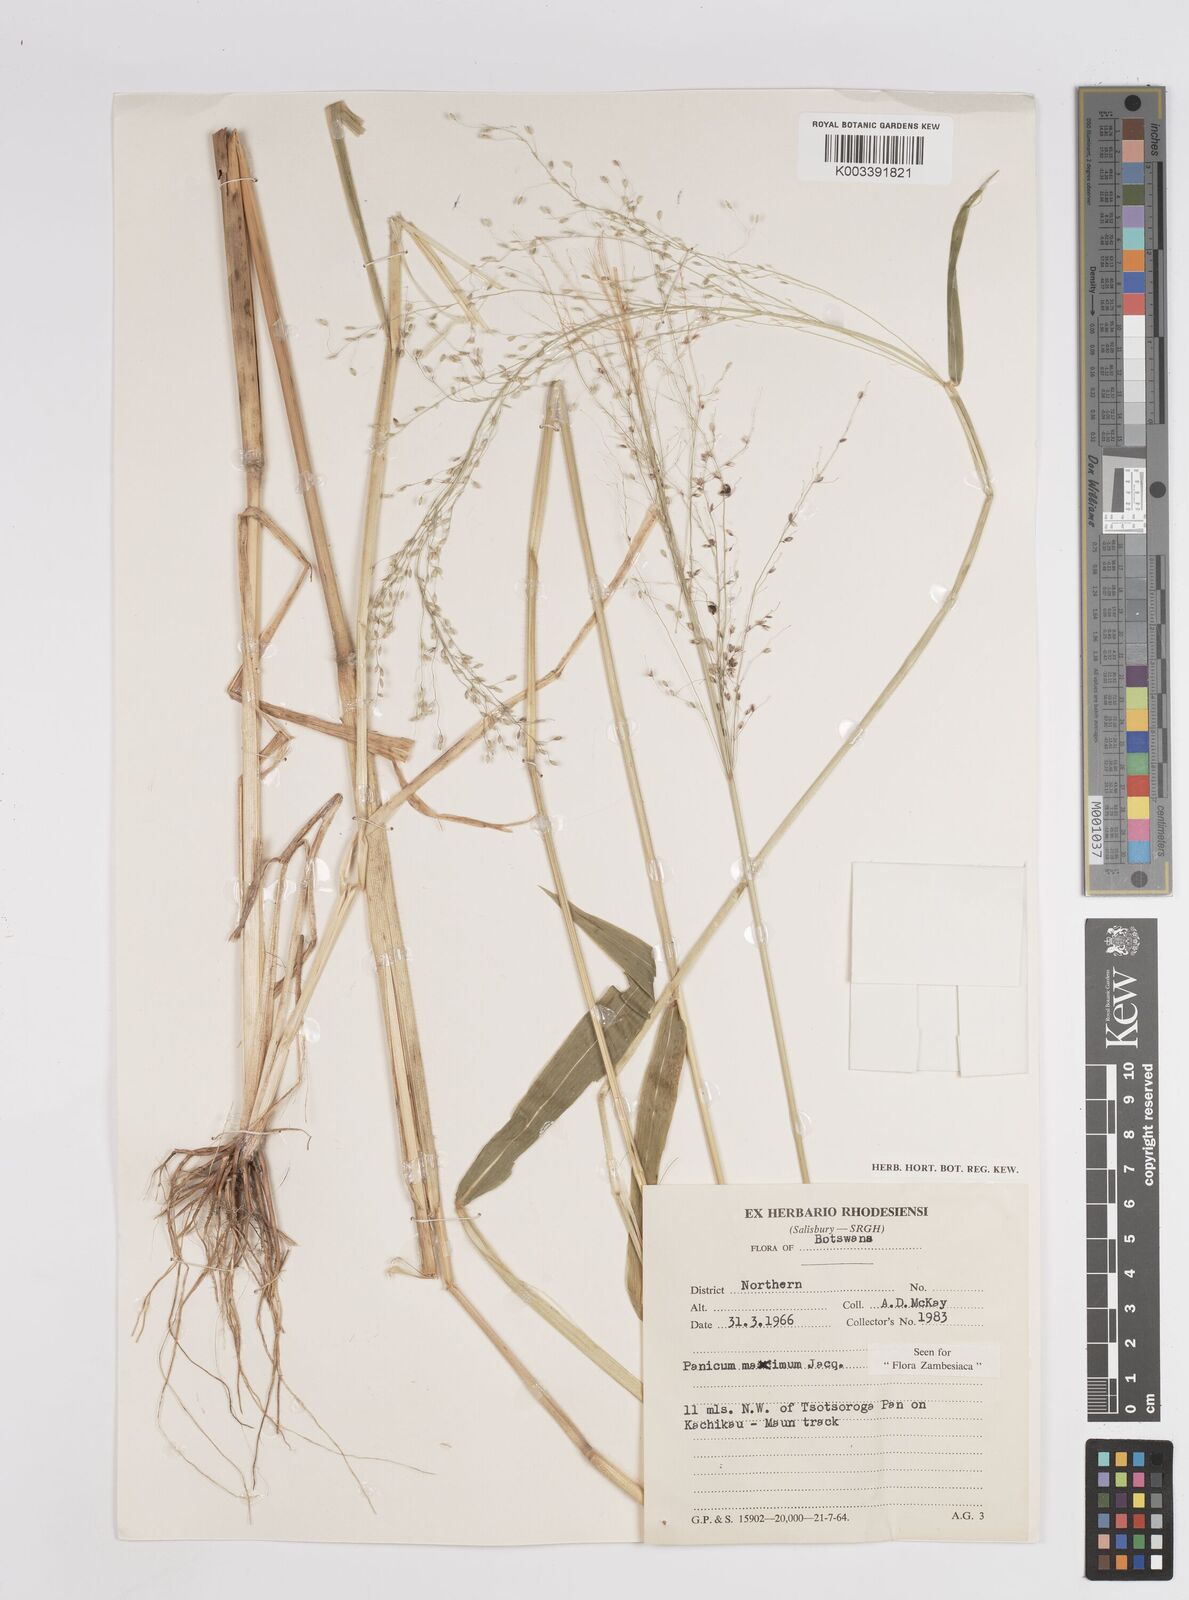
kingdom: Plantae
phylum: Tracheophyta
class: Liliopsida
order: Poales
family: Poaceae
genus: Megathyrsus
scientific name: Megathyrsus maximus
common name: Guineagrass
